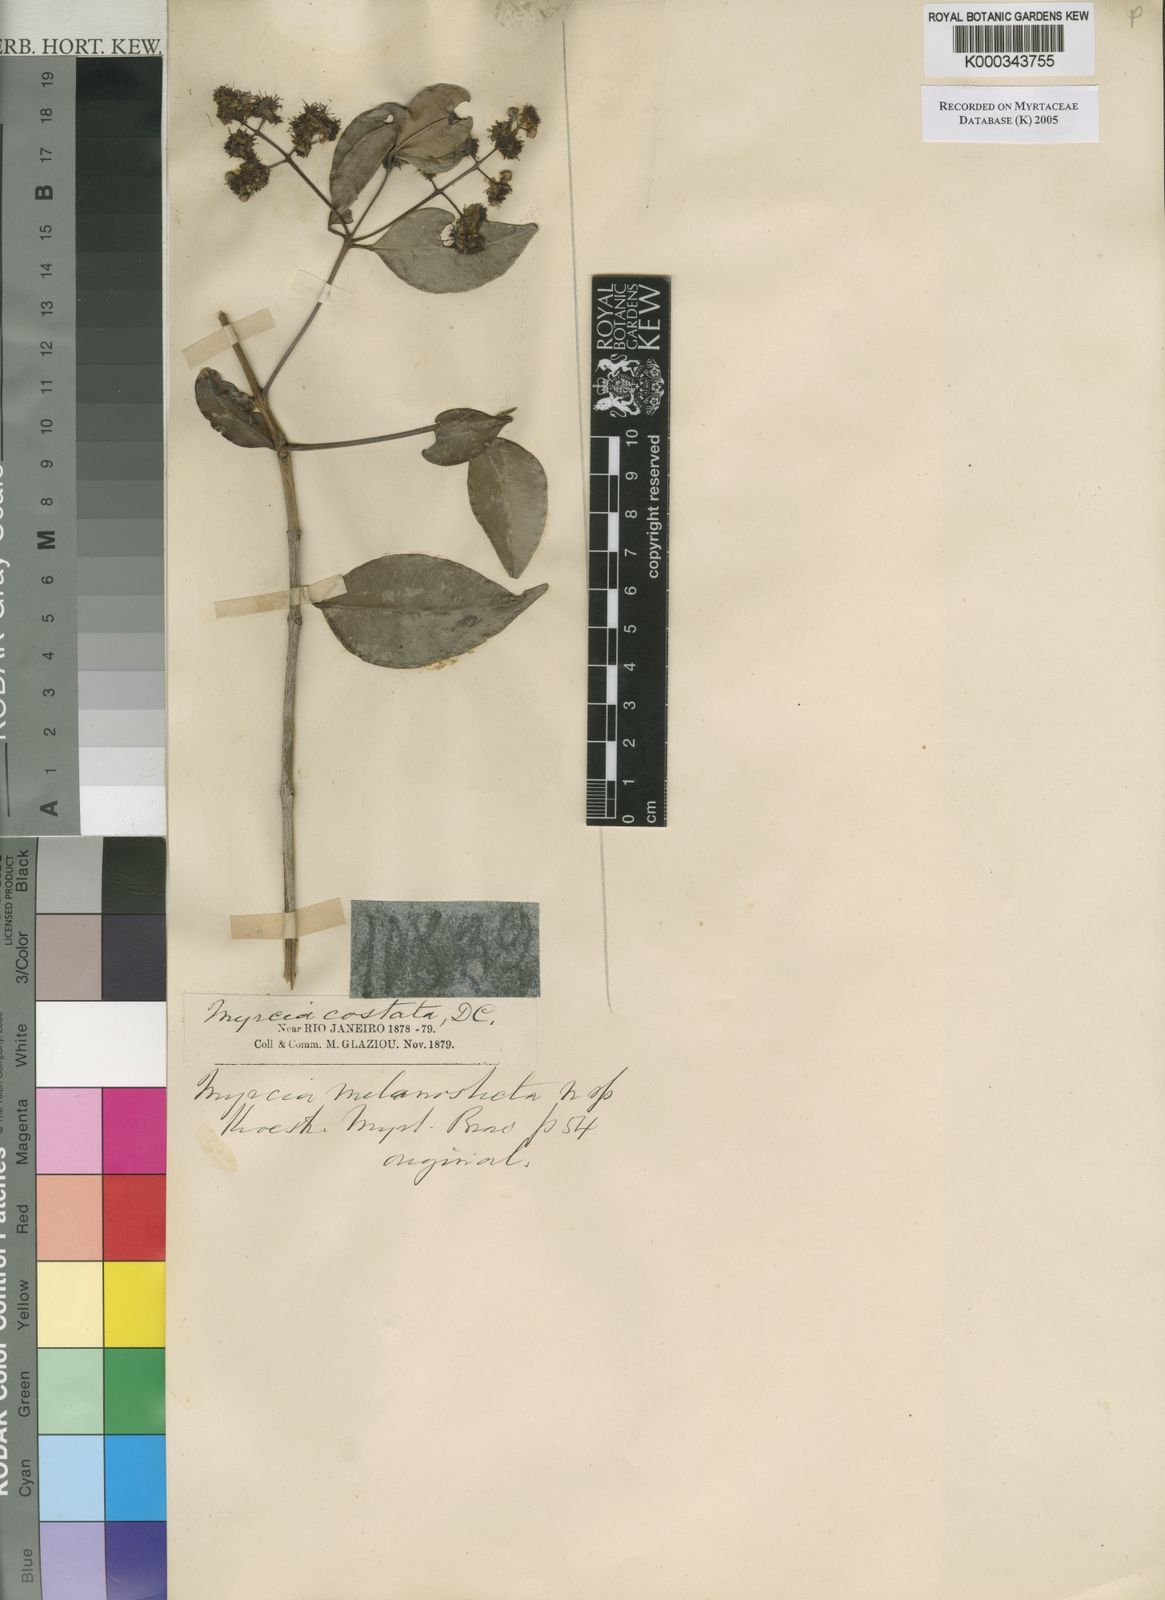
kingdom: Plantae
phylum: Tracheophyta
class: Magnoliopsida
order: Myrtales
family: Myrtaceae
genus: Myrcia
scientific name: Myrcia splendens
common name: Surinam cherry
